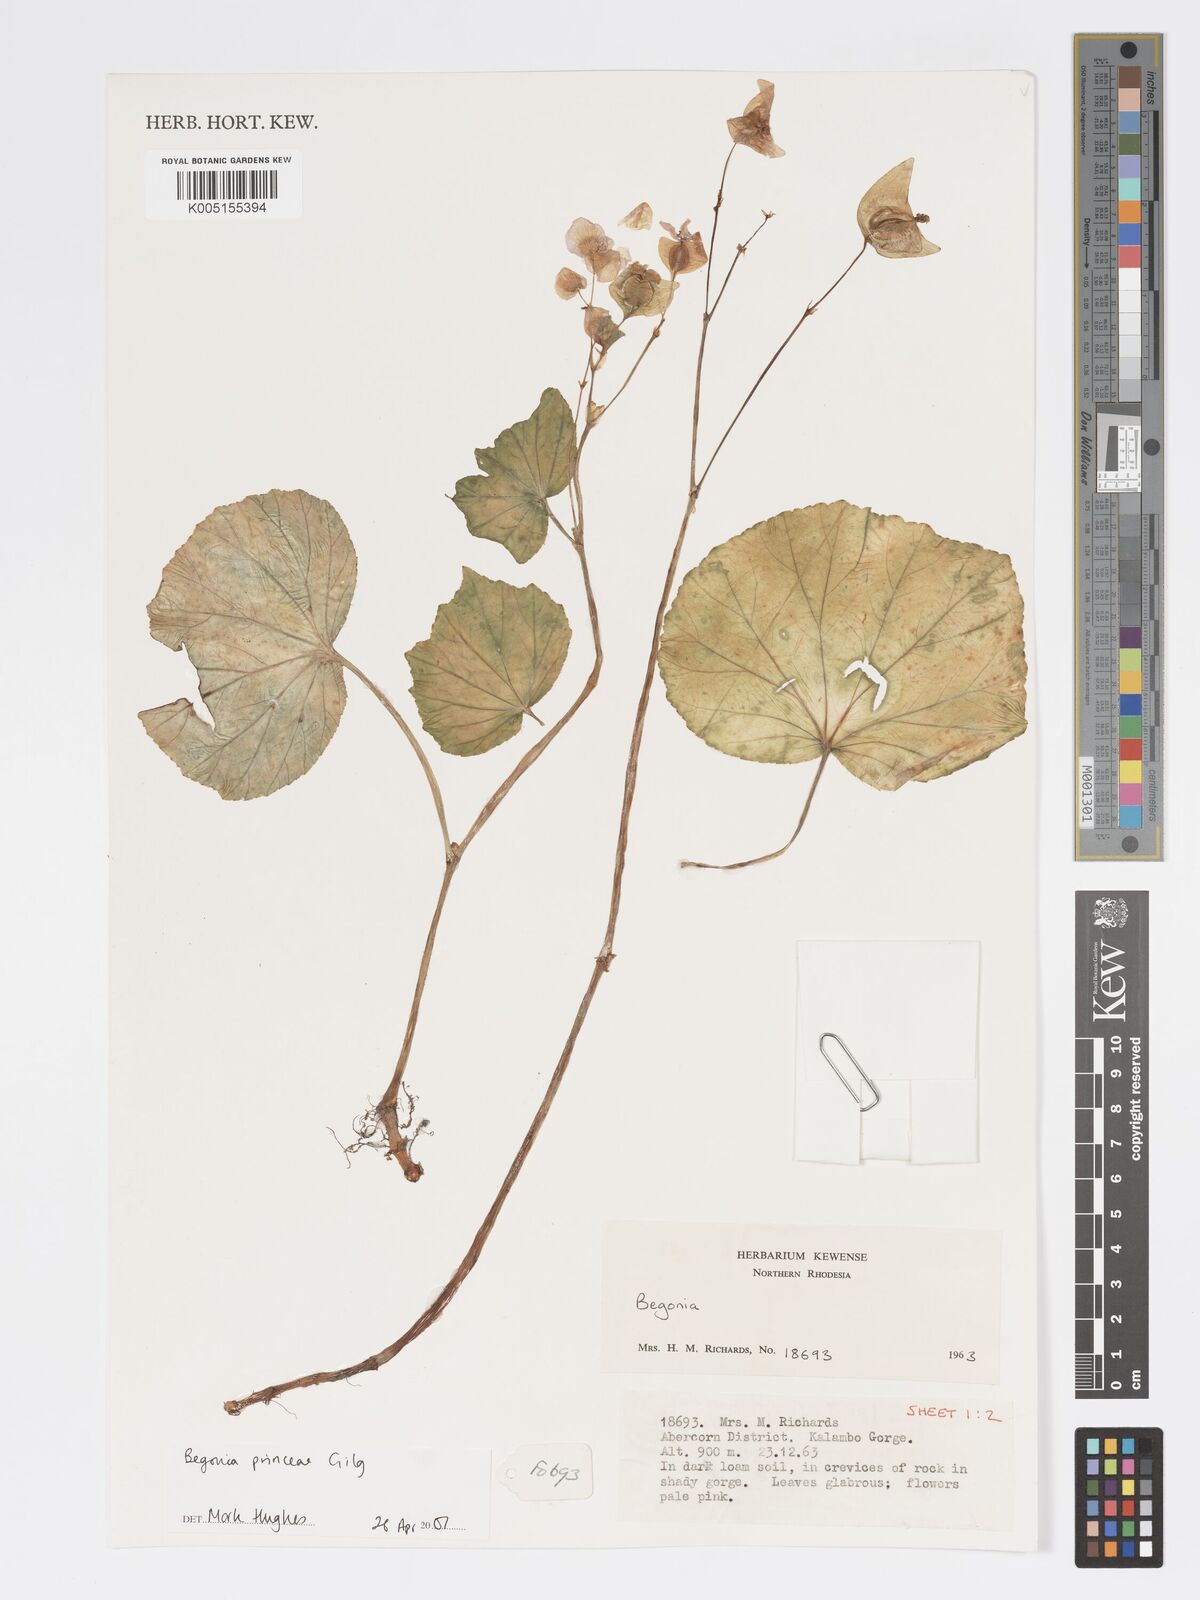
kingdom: Plantae
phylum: Tracheophyta
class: Magnoliopsida
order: Cucurbitales
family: Begoniaceae
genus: Begonia
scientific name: Begonia
